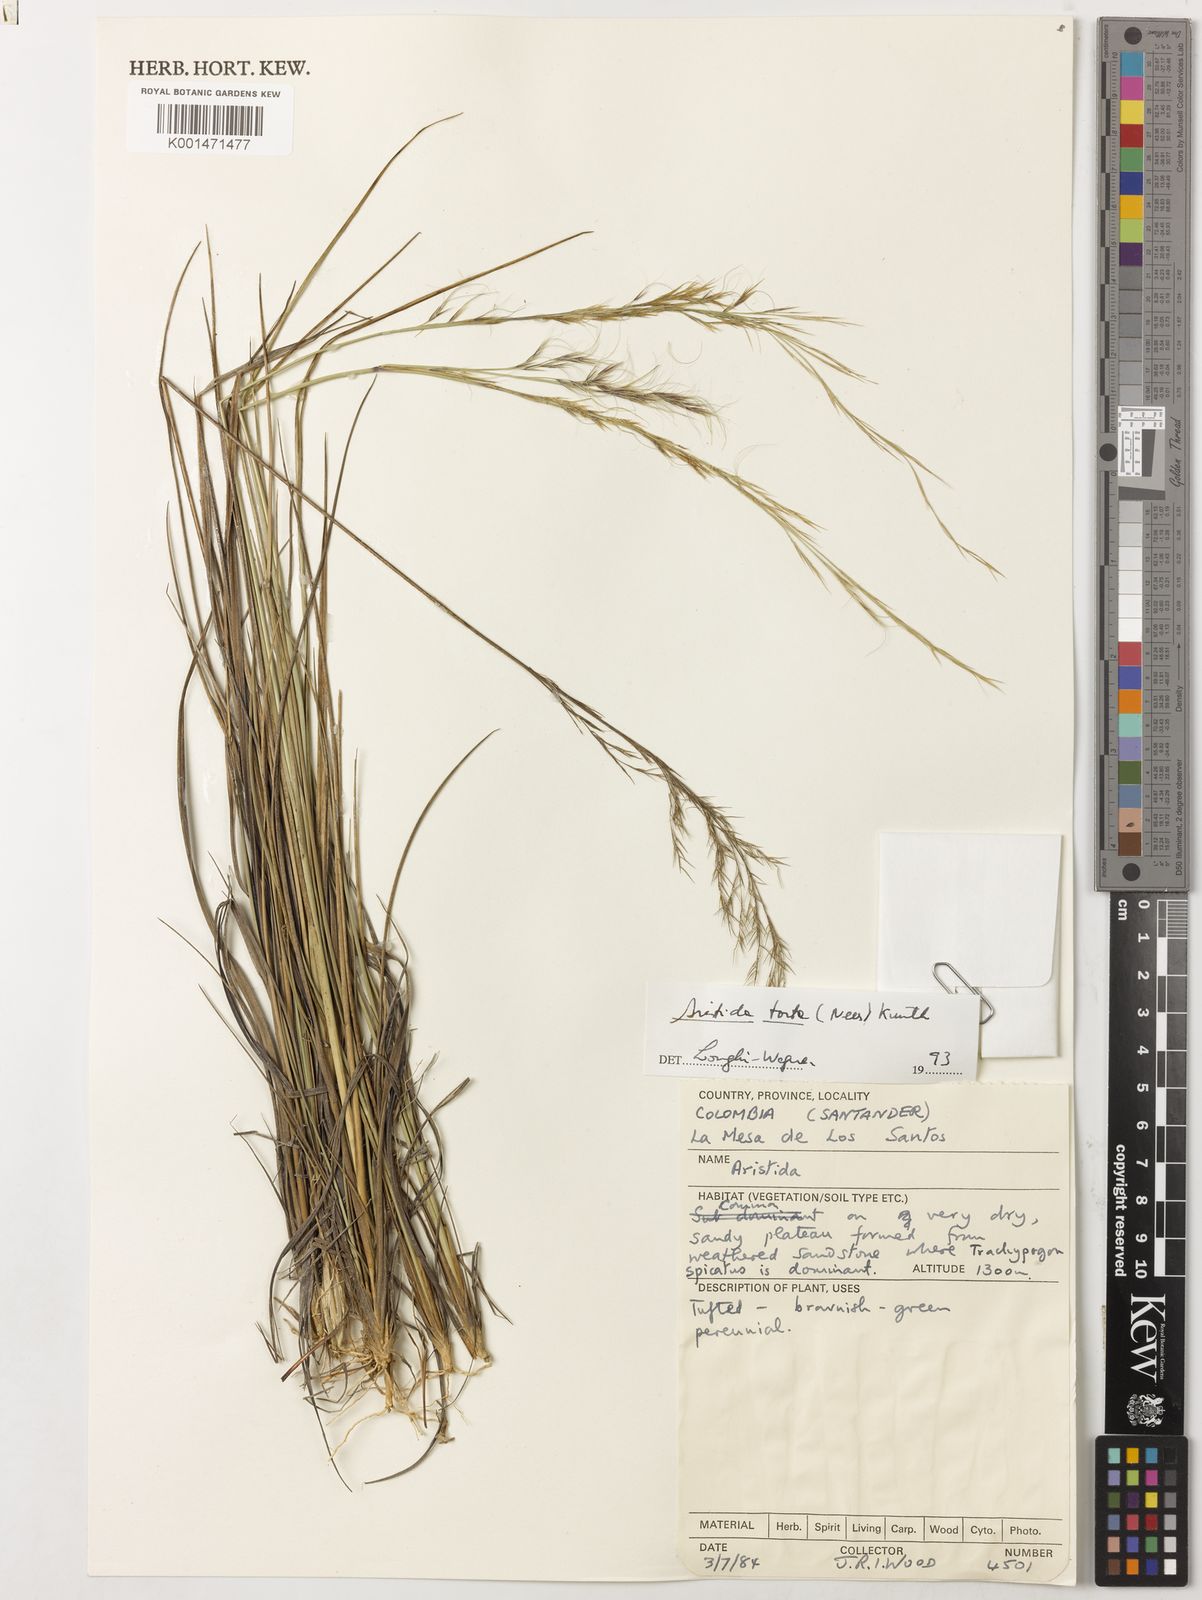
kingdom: Plantae
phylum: Tracheophyta
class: Liliopsida
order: Poales
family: Poaceae
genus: Aristida
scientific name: Aristida torta
